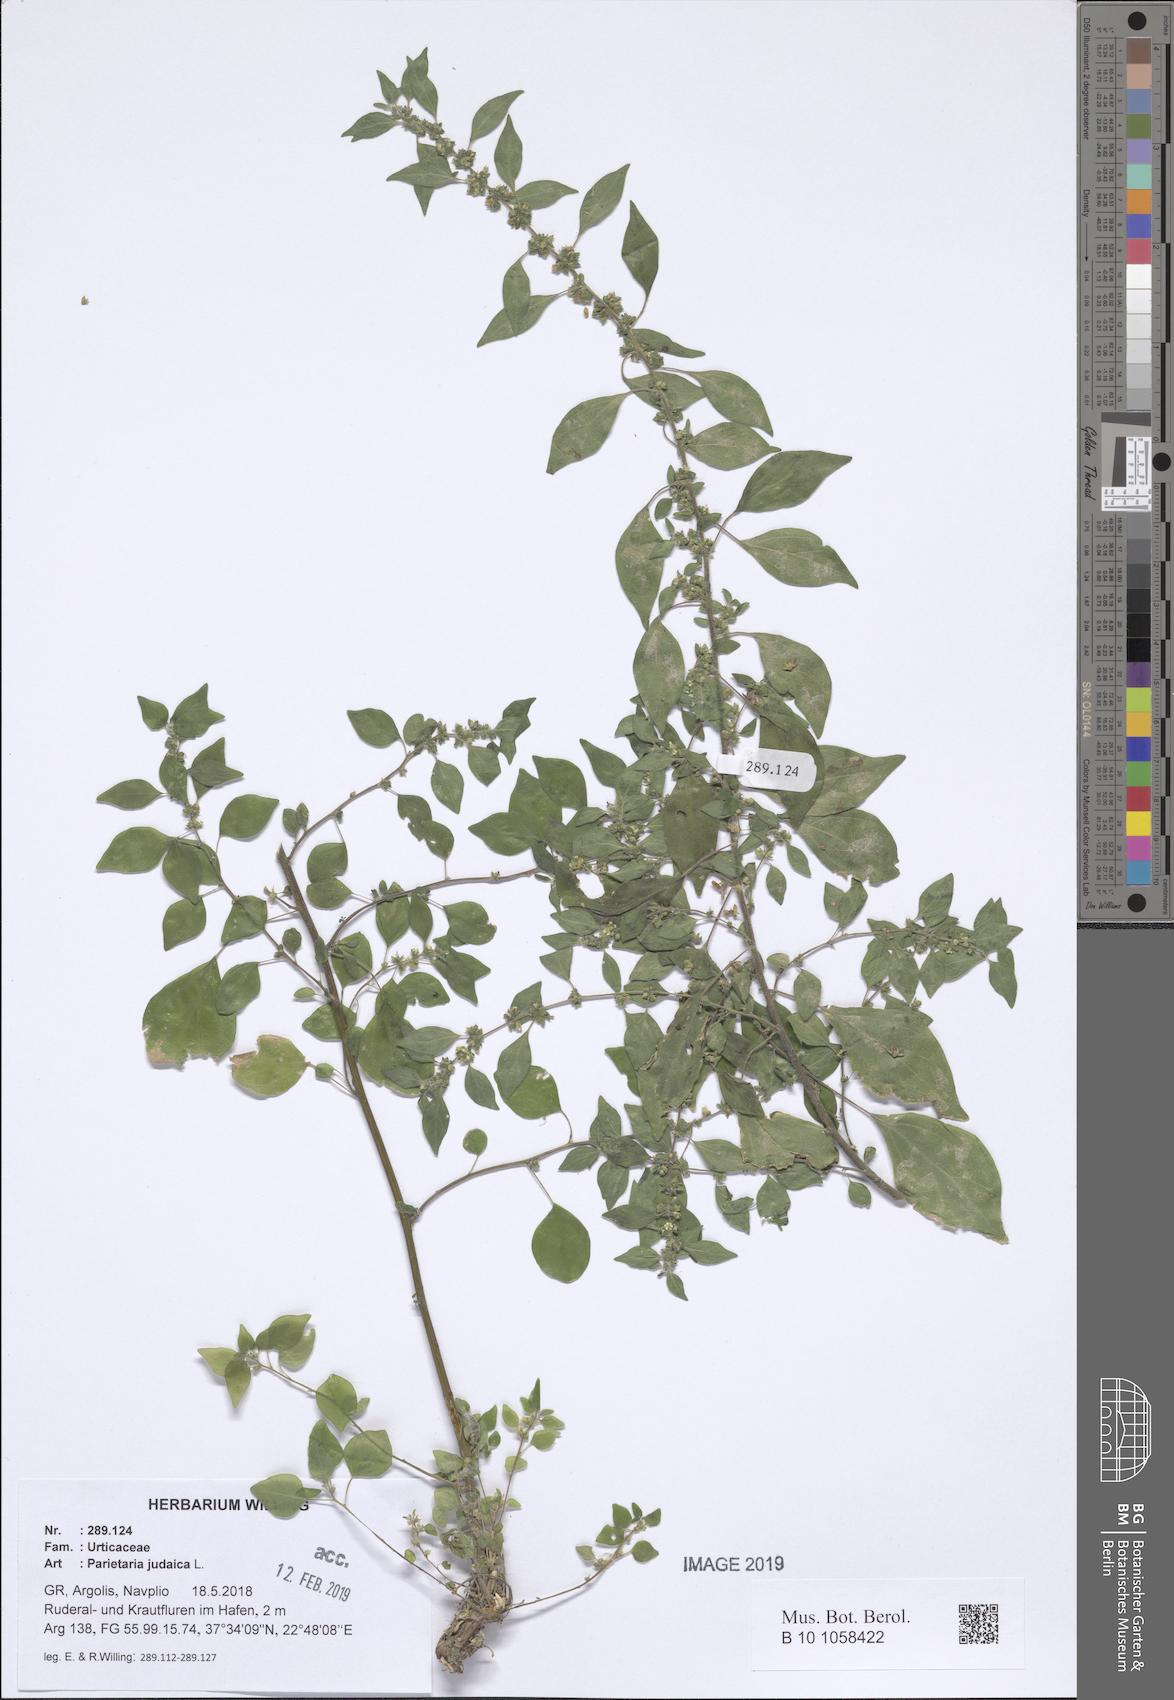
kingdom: Plantae
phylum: Tracheophyta
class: Magnoliopsida
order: Rosales
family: Urticaceae
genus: Parietaria
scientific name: Parietaria judaica
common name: Pellitory-of-the-wall
